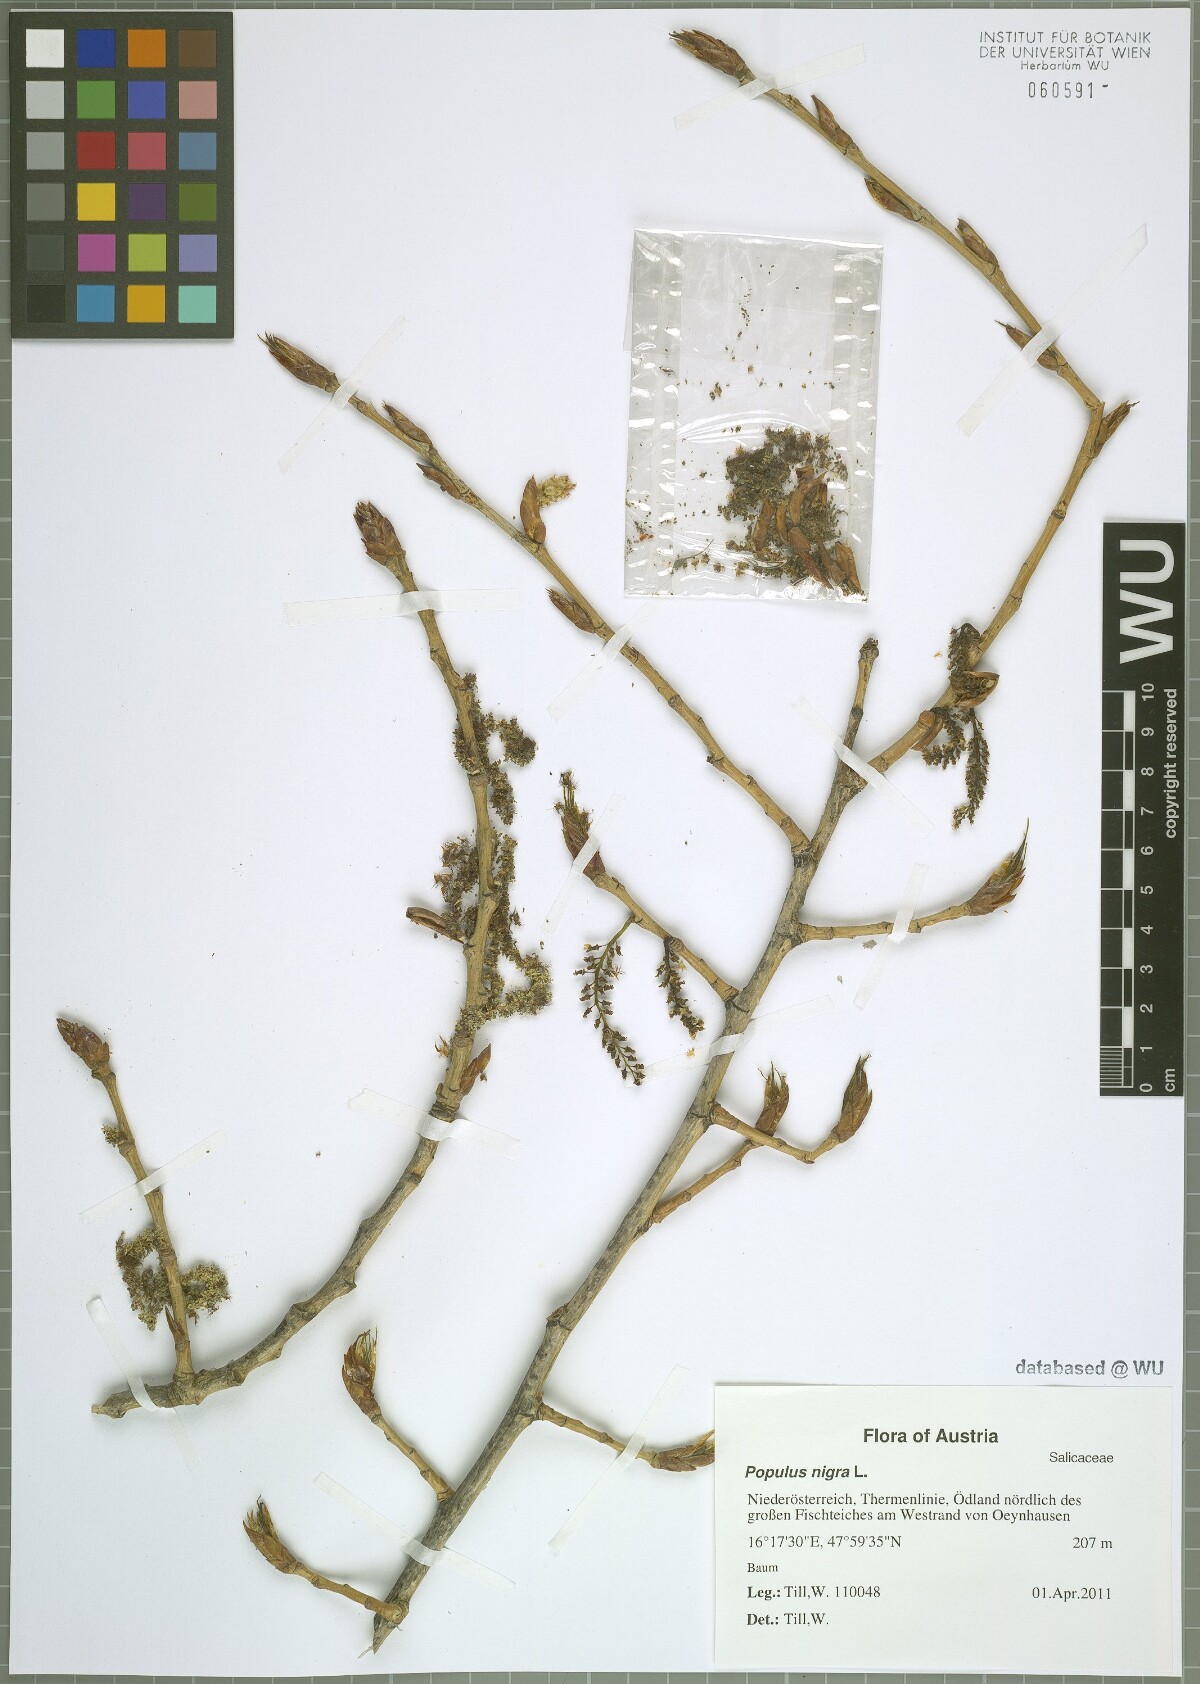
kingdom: Plantae
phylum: Tracheophyta
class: Magnoliopsida
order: Malpighiales
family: Salicaceae
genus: Populus
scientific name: Populus nigra
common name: Black poplar
